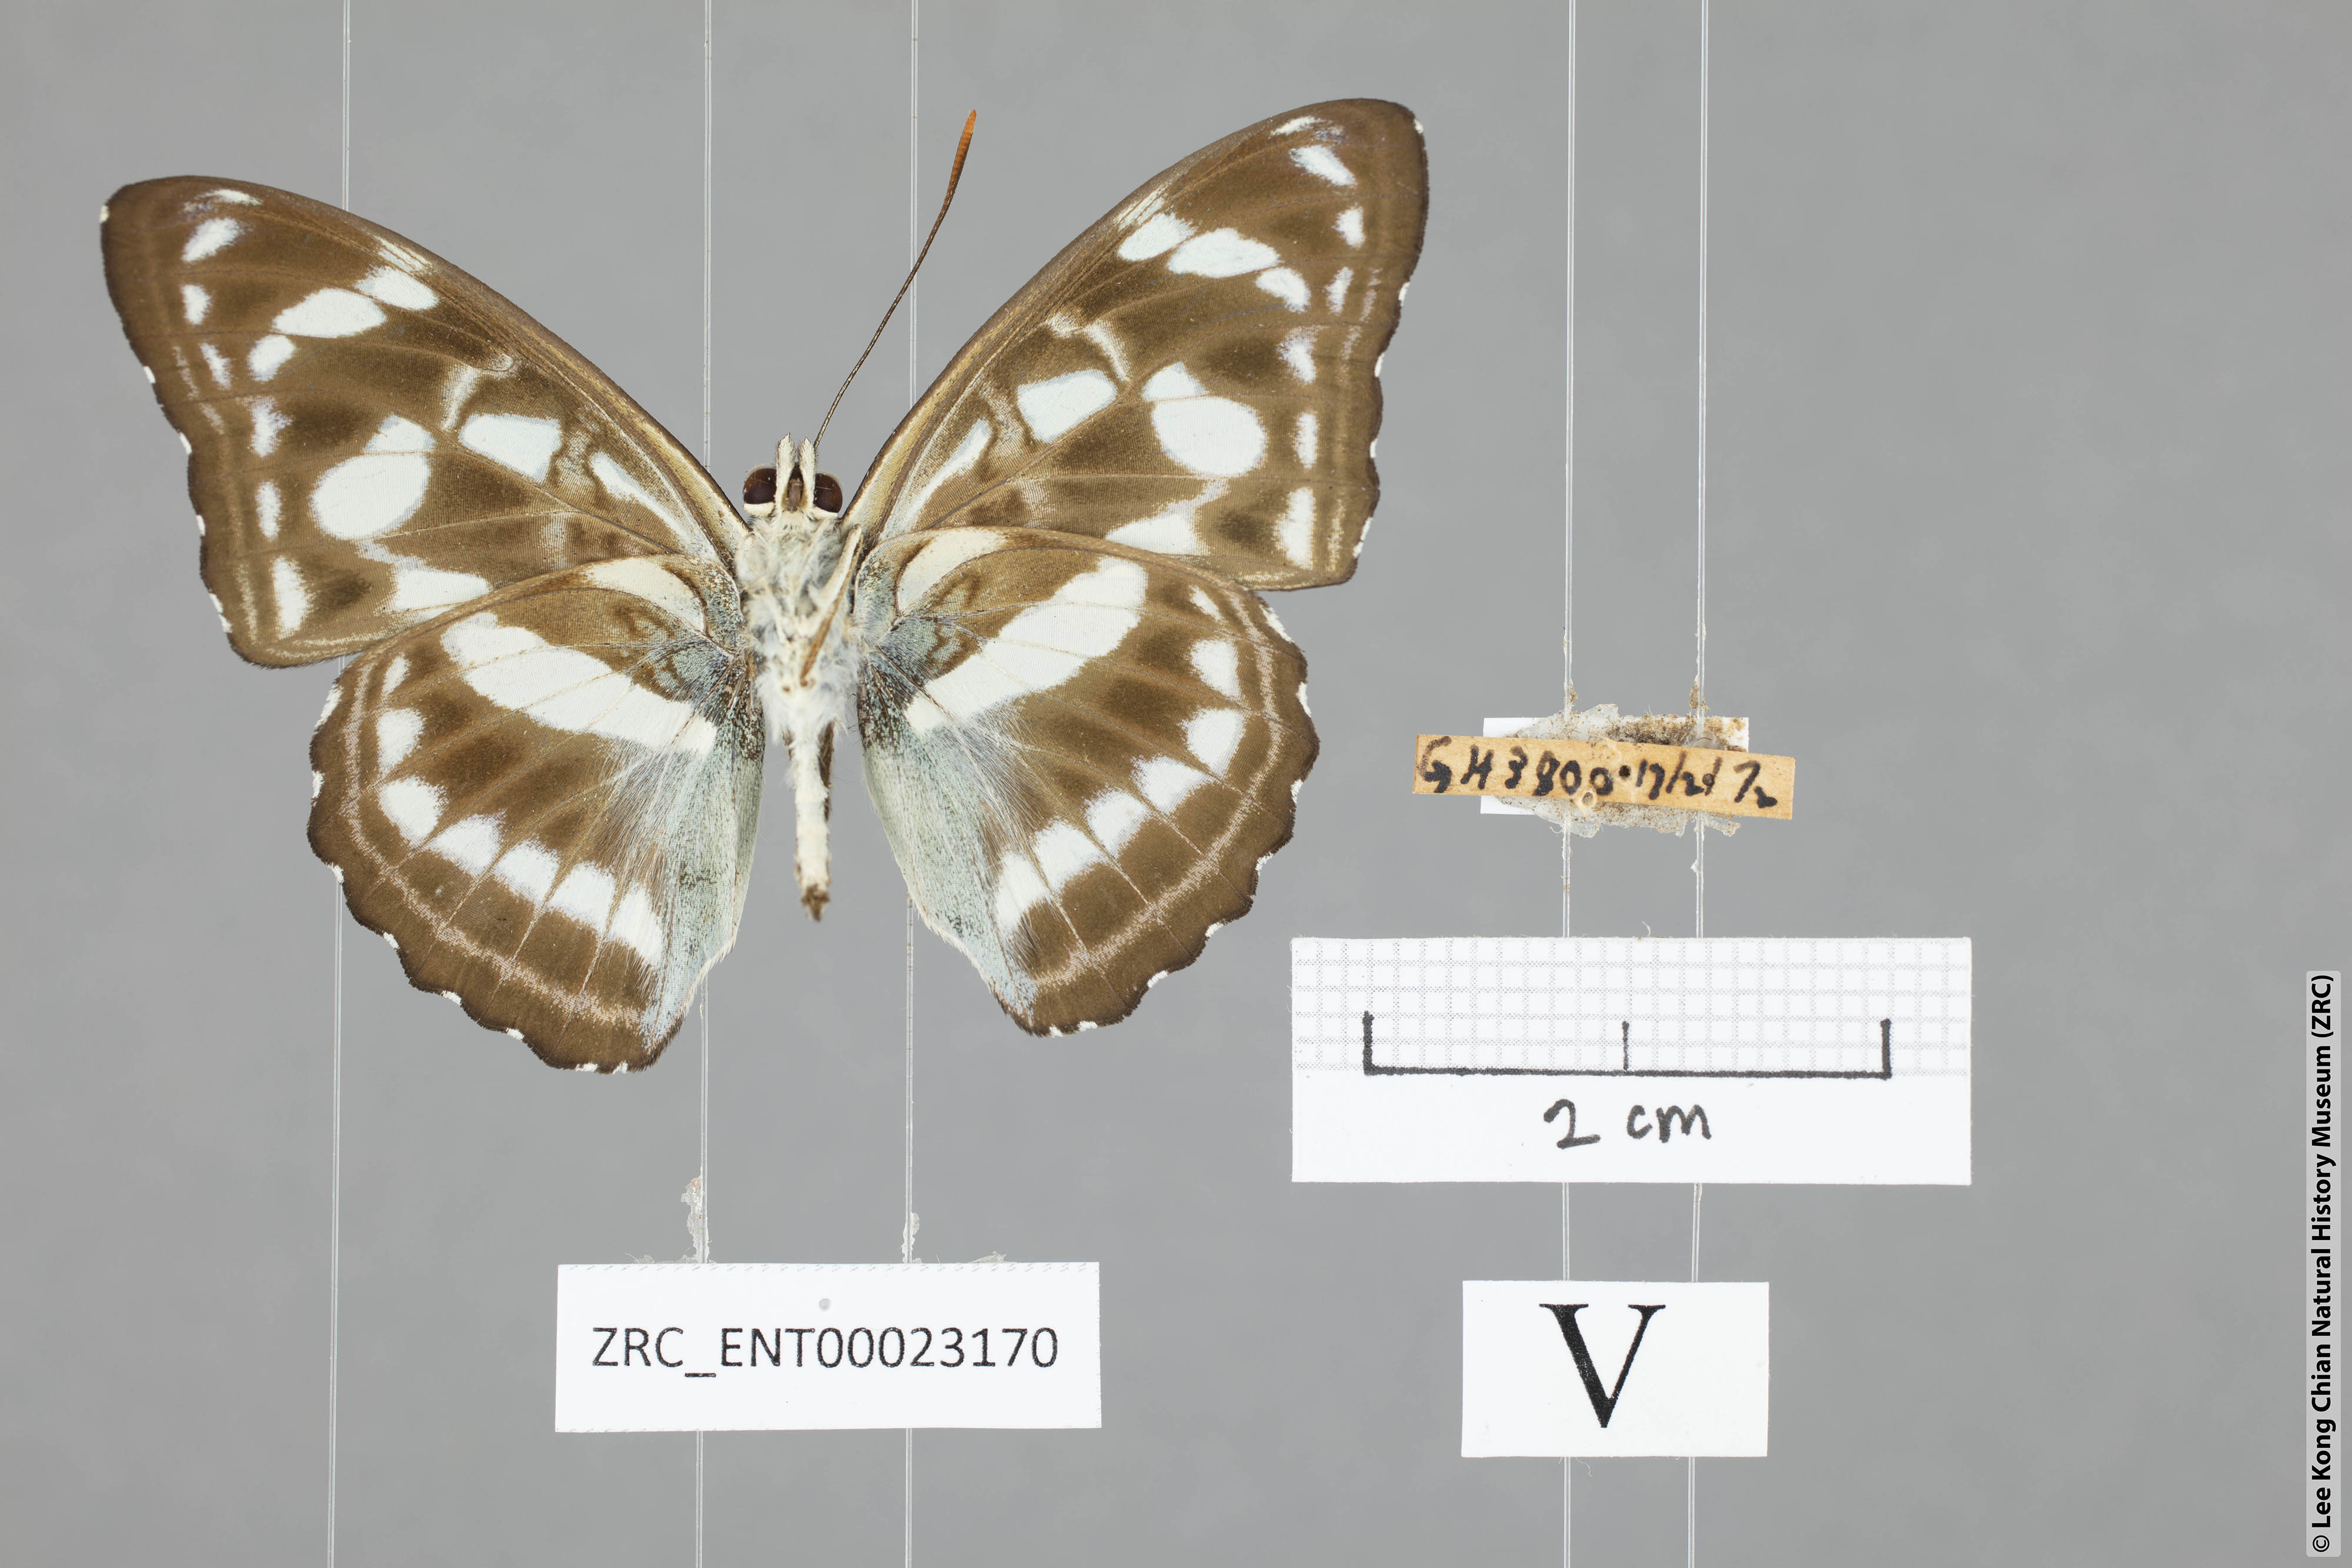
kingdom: Animalia
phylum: Arthropoda
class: Insecta
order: Lepidoptera
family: Nymphalidae
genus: Parathyma
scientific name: Parathyma abiasa
